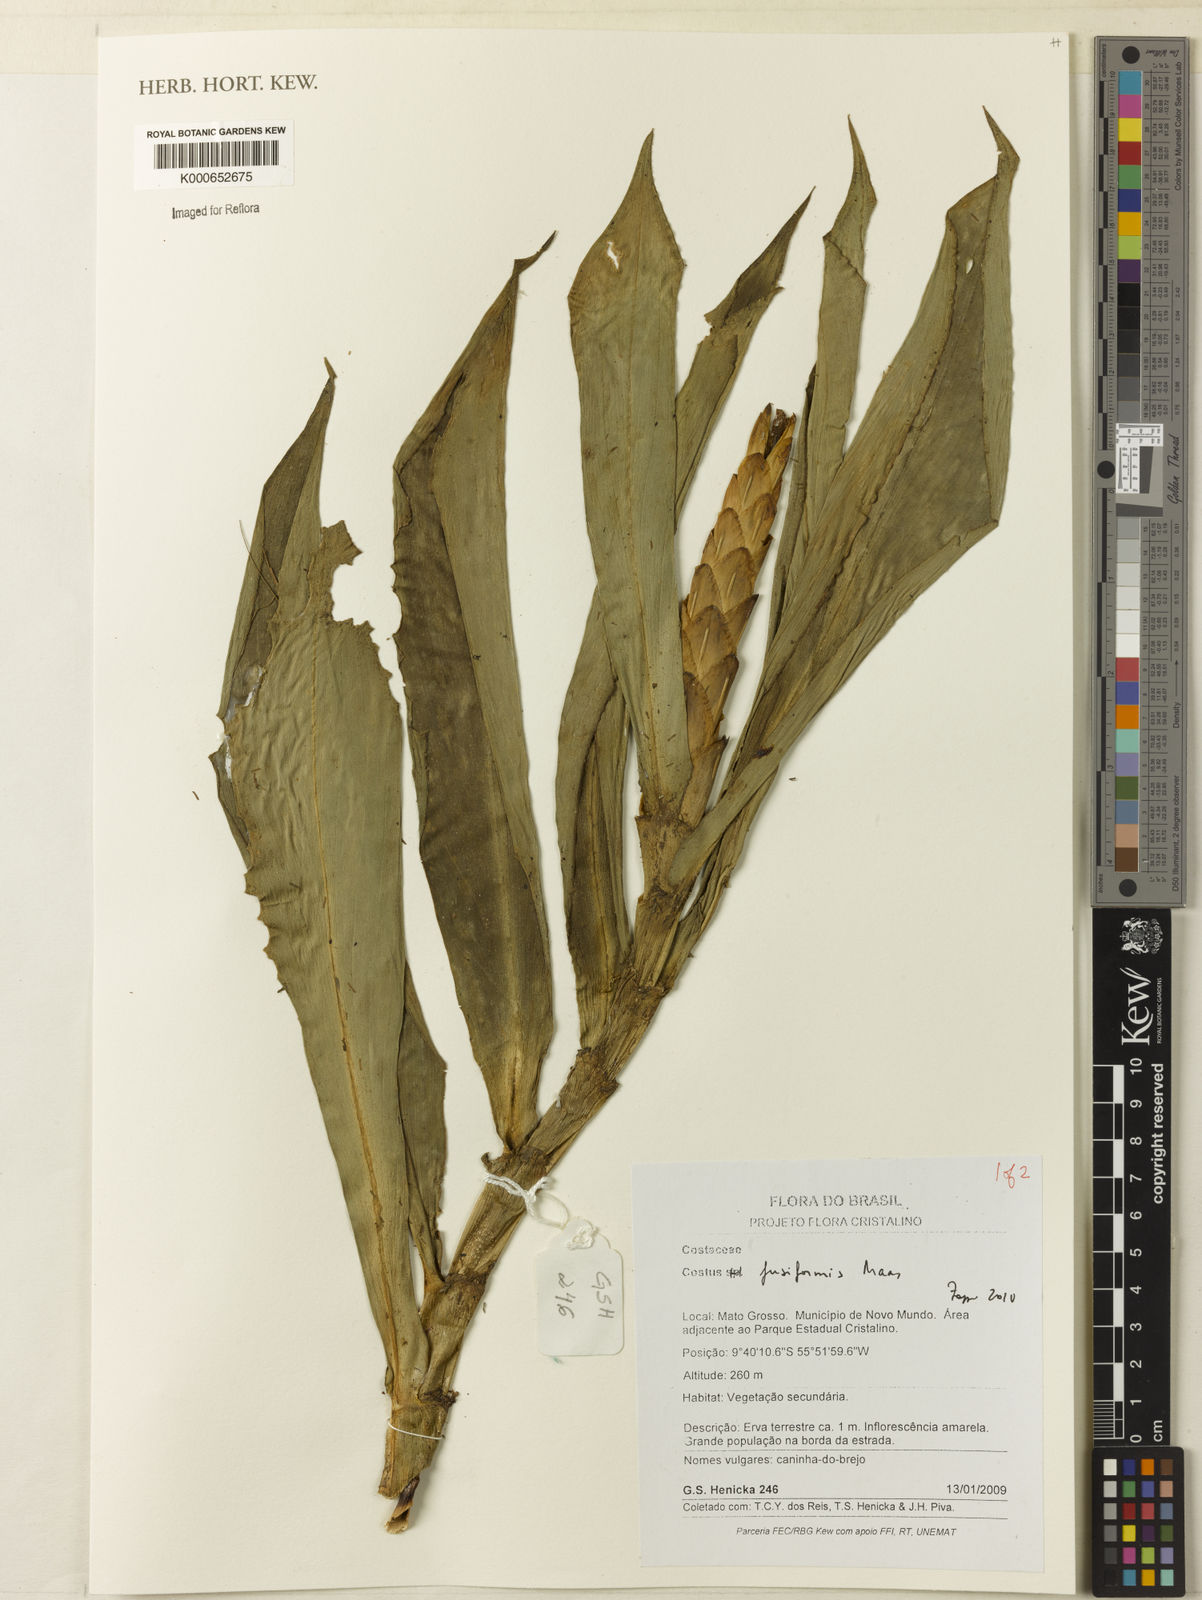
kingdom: Plantae
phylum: Tracheophyta
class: Liliopsida
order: Zingiberales
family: Costaceae
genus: Chamaecostus
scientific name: Chamaecostus fusiformis
